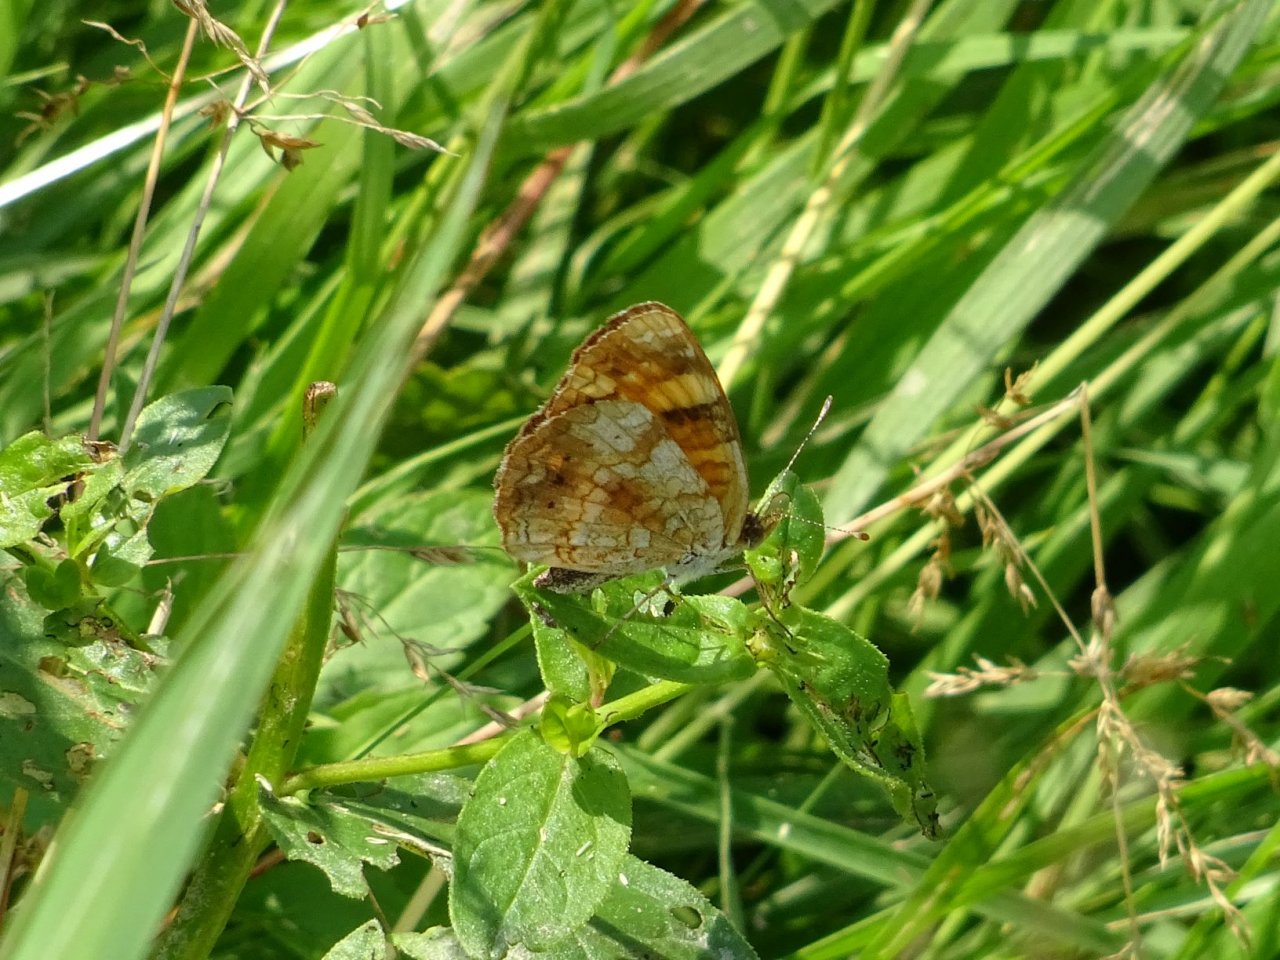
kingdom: Animalia
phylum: Arthropoda
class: Insecta
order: Lepidoptera
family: Nymphalidae
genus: Phyciodes
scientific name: Phyciodes tharos
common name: Pearl Crescent
